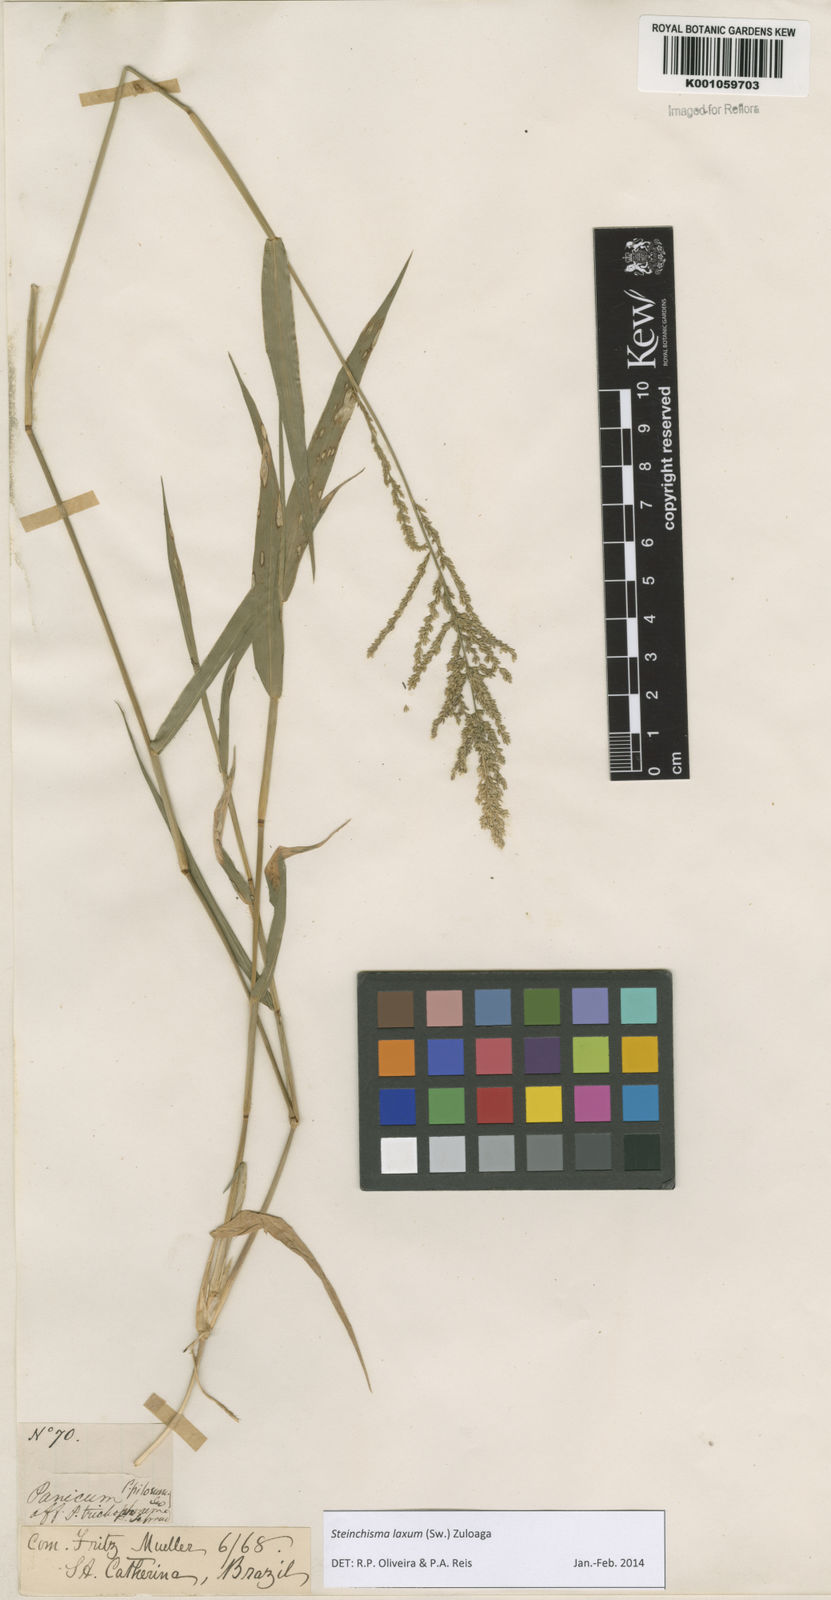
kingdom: Plantae
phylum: Tracheophyta
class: Liliopsida
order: Poales
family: Poaceae
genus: Steinchisma
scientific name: Steinchisma laxum
